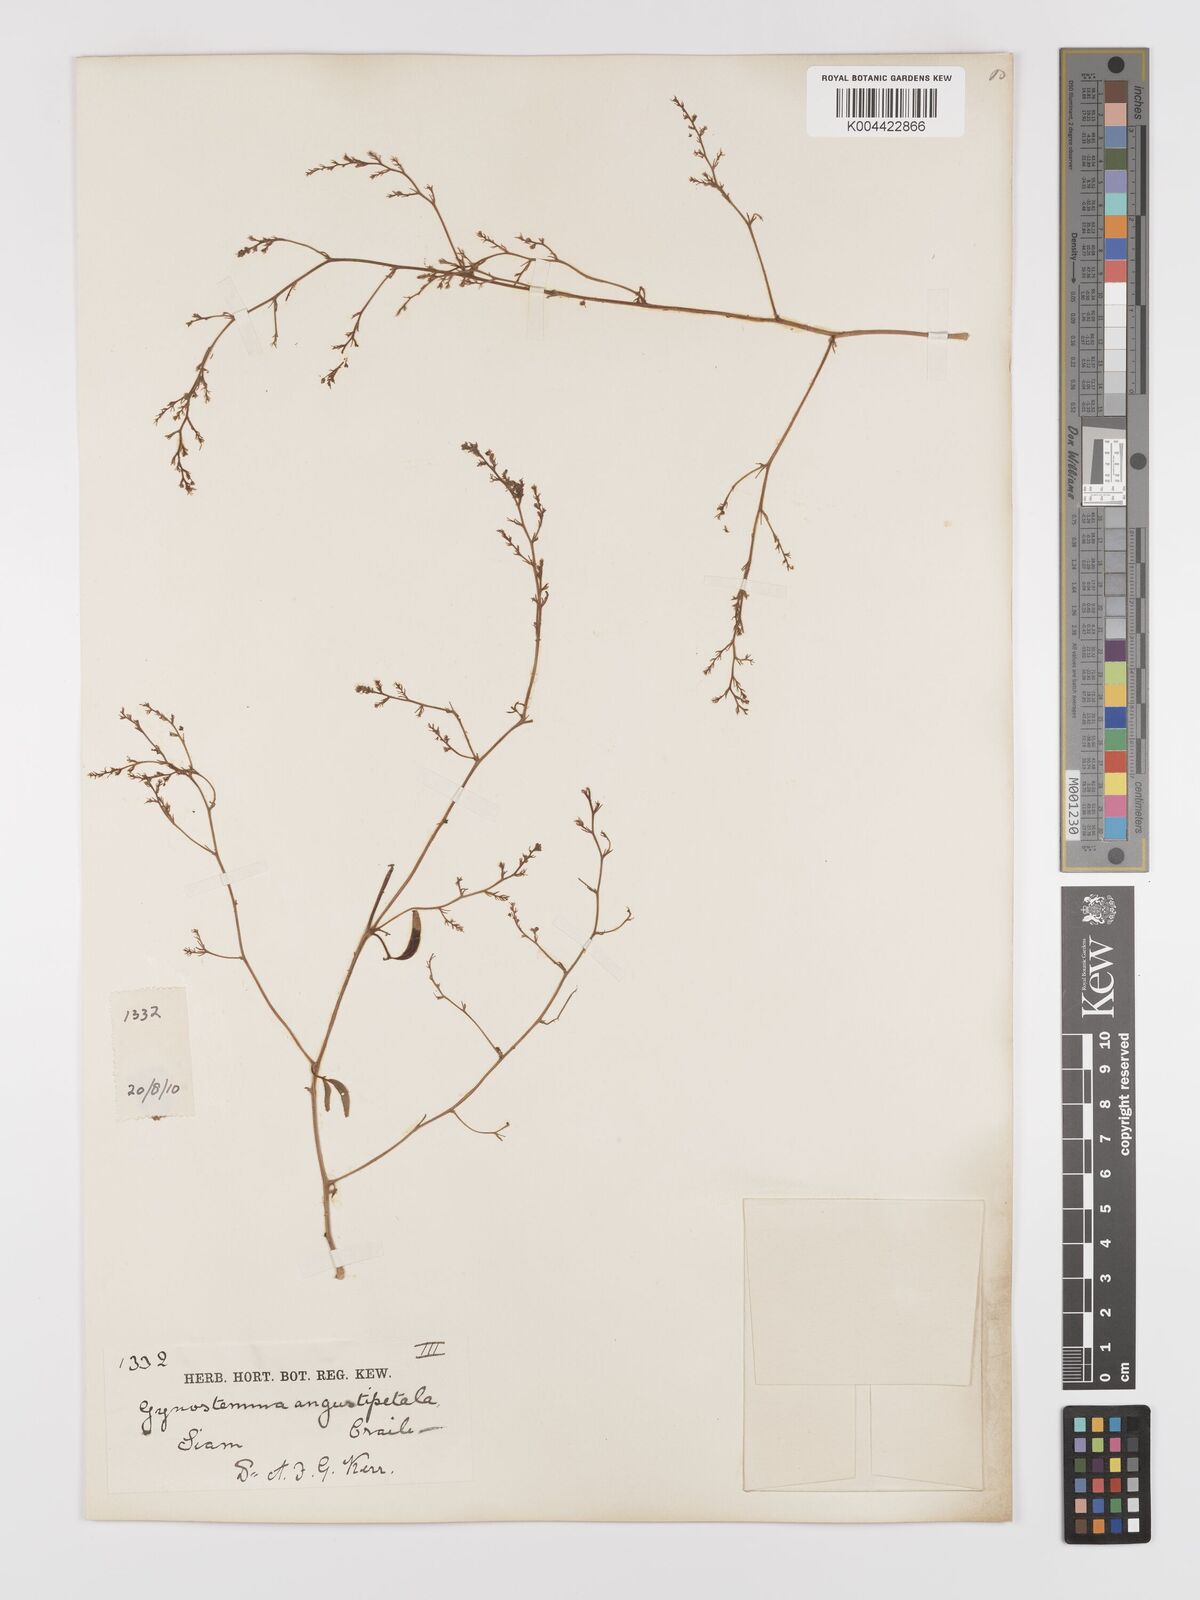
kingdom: Plantae
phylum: Tracheophyta
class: Magnoliopsida
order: Cucurbitales
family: Cucurbitaceae
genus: Neoalsomitra
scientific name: Neoalsomitra angustipetala
